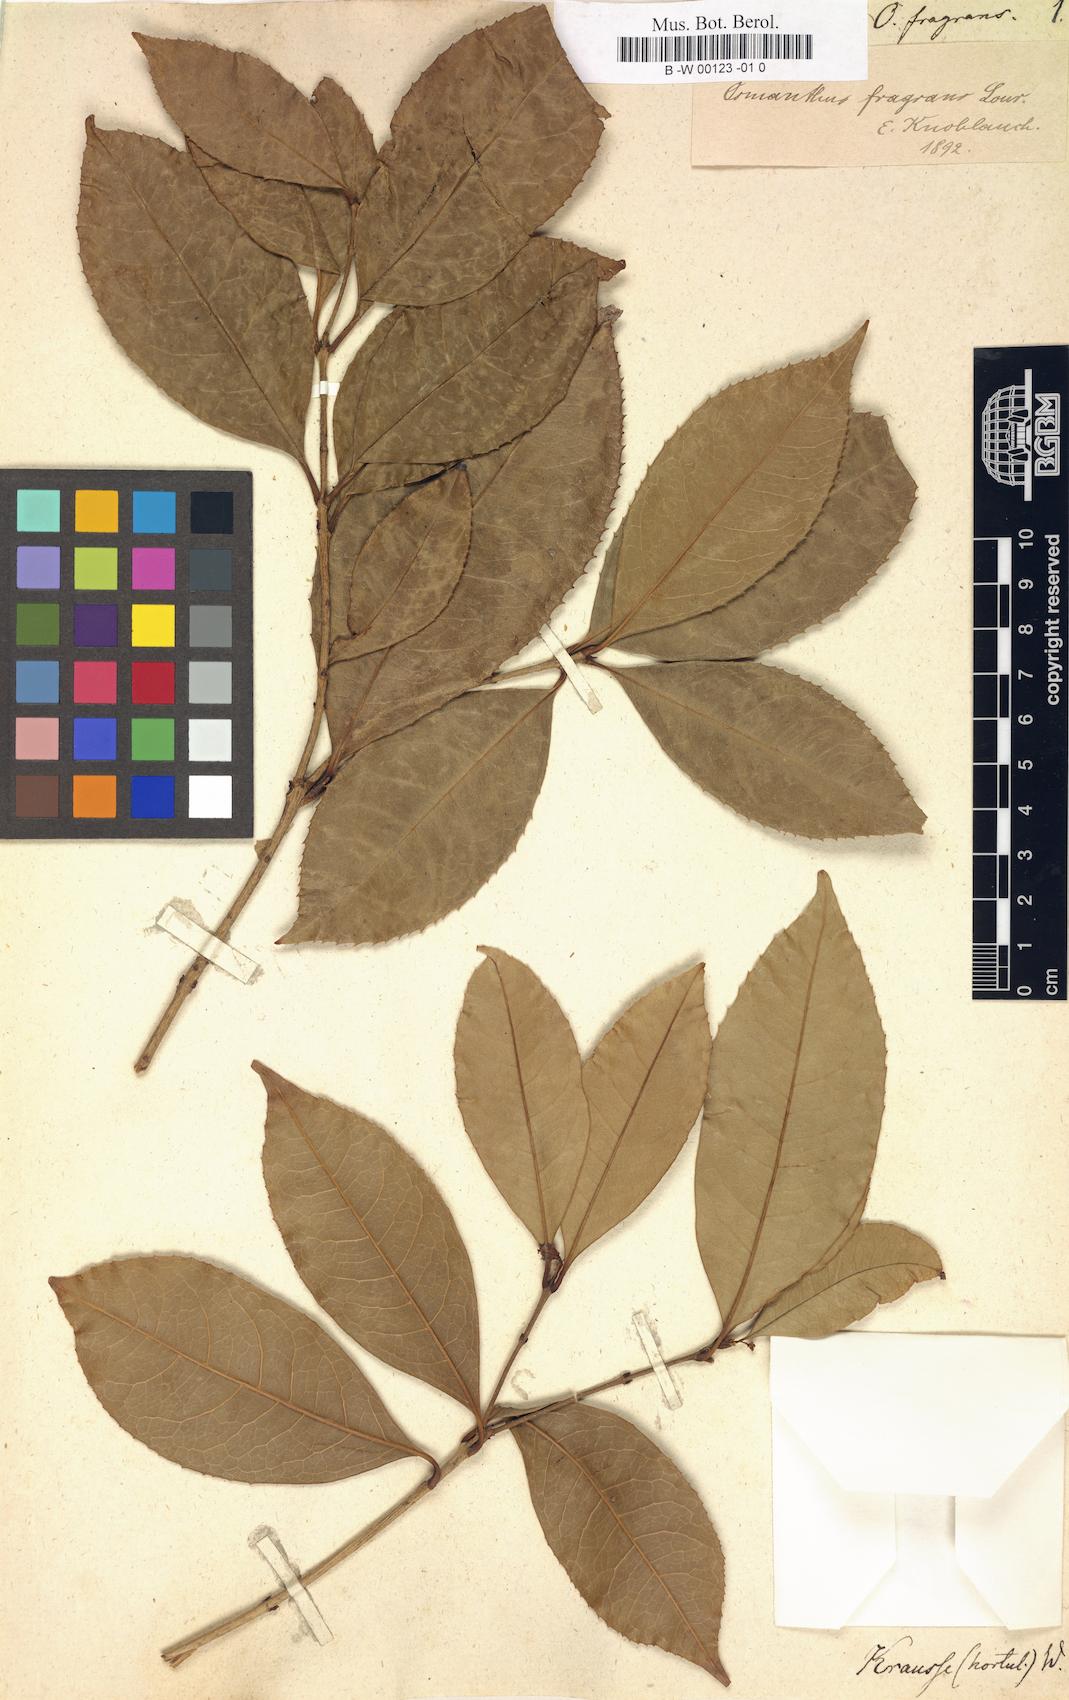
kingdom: Plantae
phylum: Tracheophyta
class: Magnoliopsida
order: Lamiales
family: Oleaceae
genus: Osmanthus
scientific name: Osmanthus fragrans
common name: Sweet osmanthus
